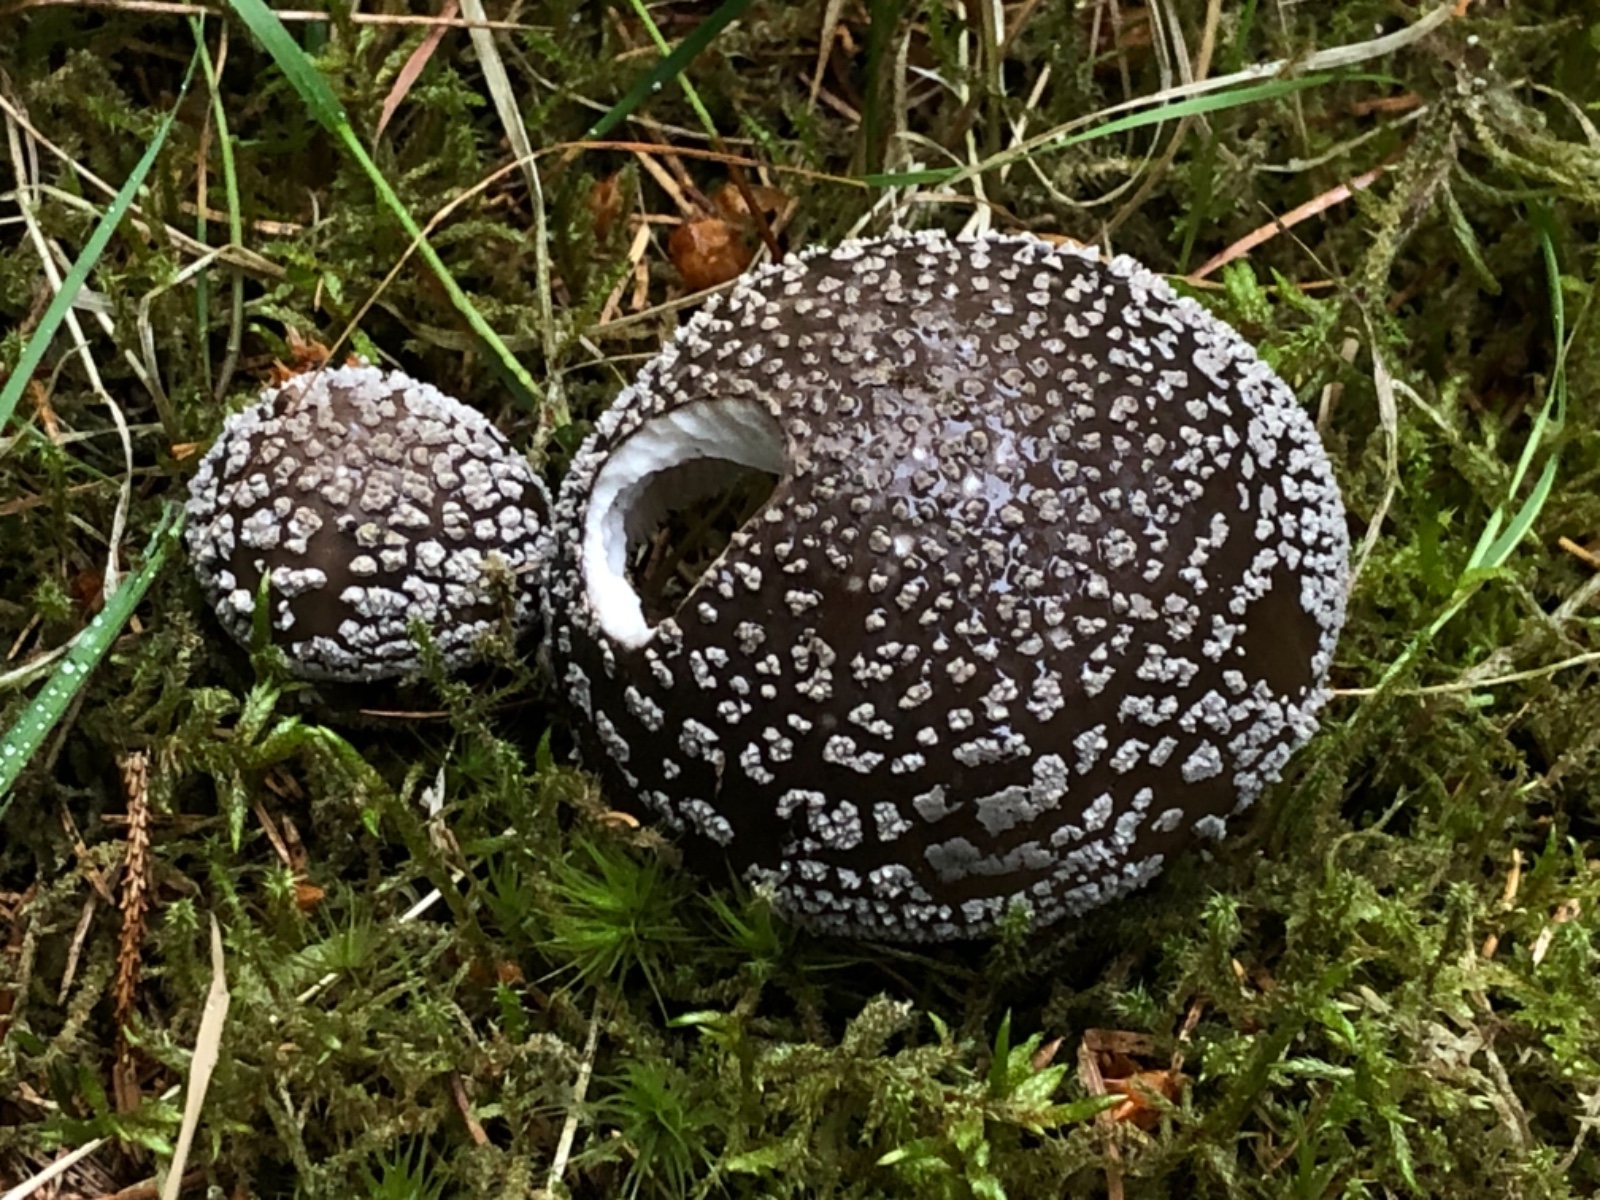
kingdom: Fungi
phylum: Basidiomycota
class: Agaricomycetes
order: Agaricales
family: Amanitaceae
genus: Amanita
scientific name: Amanita
